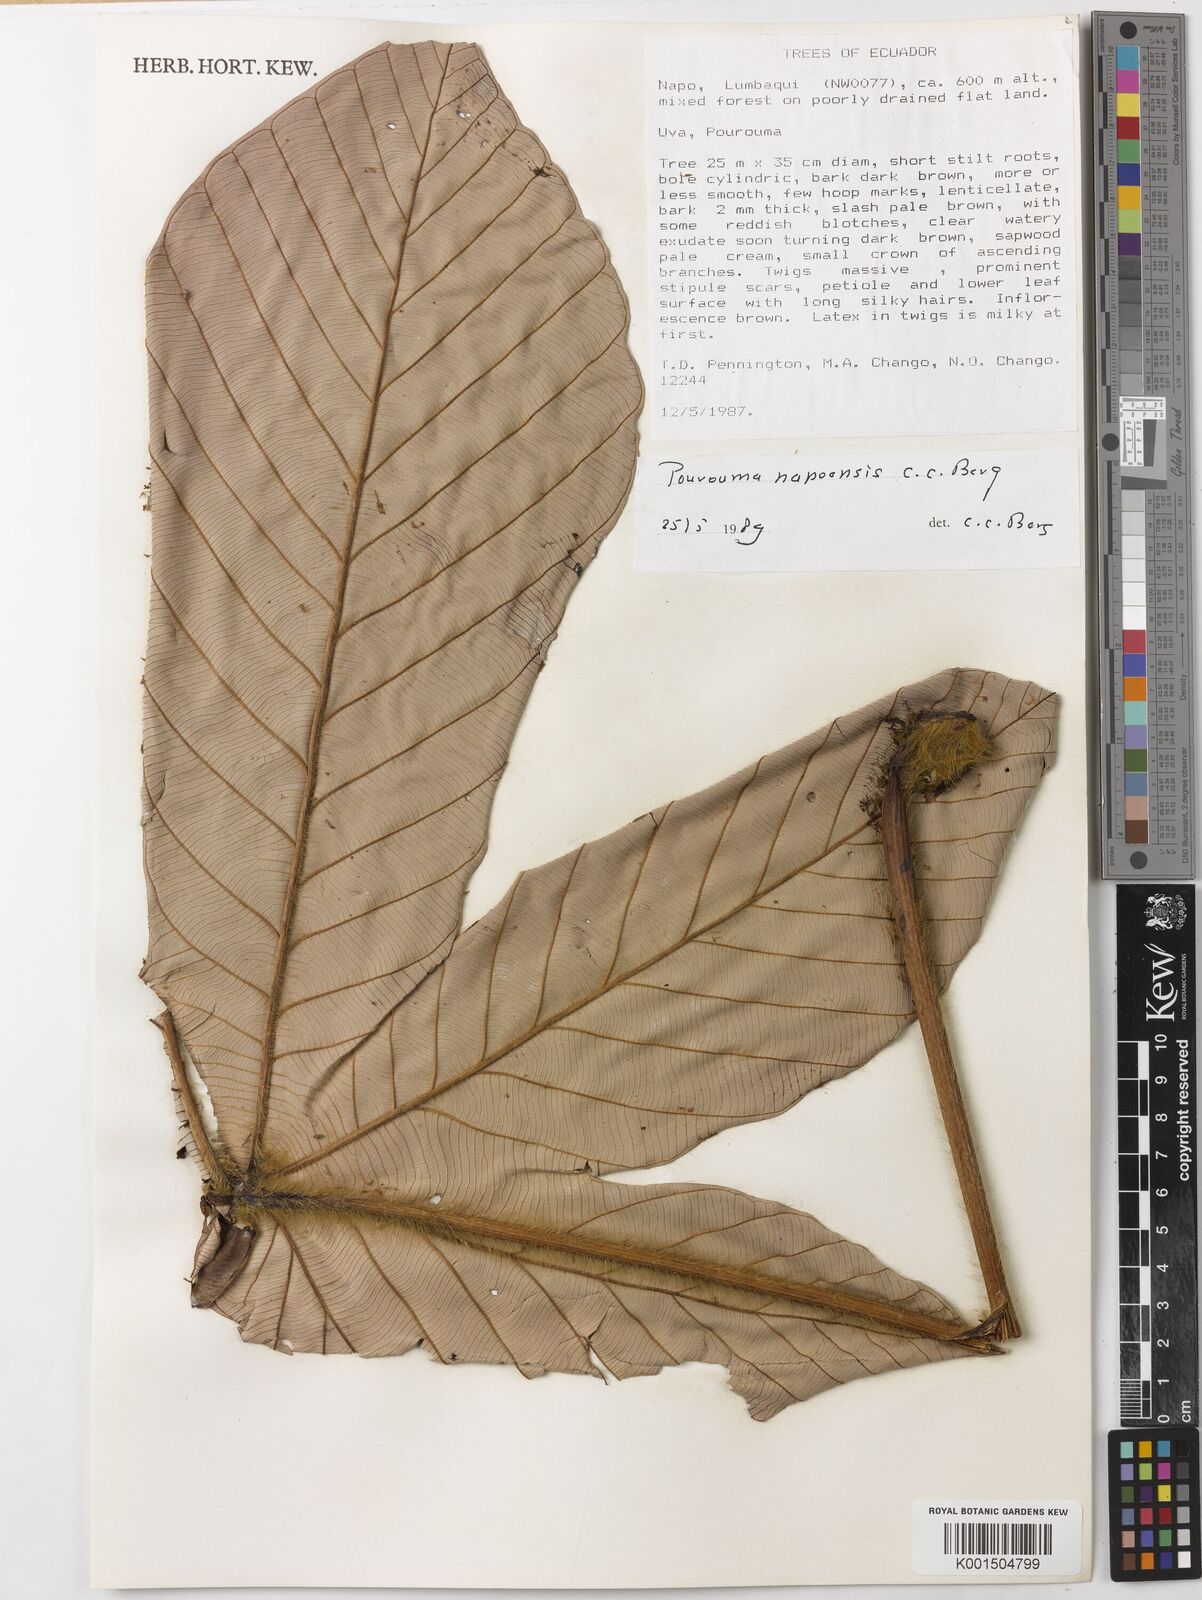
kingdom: Plantae
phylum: Tracheophyta
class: Magnoliopsida
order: Rosales
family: Urticaceae
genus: Pourouma
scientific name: Pourouma napoensis
